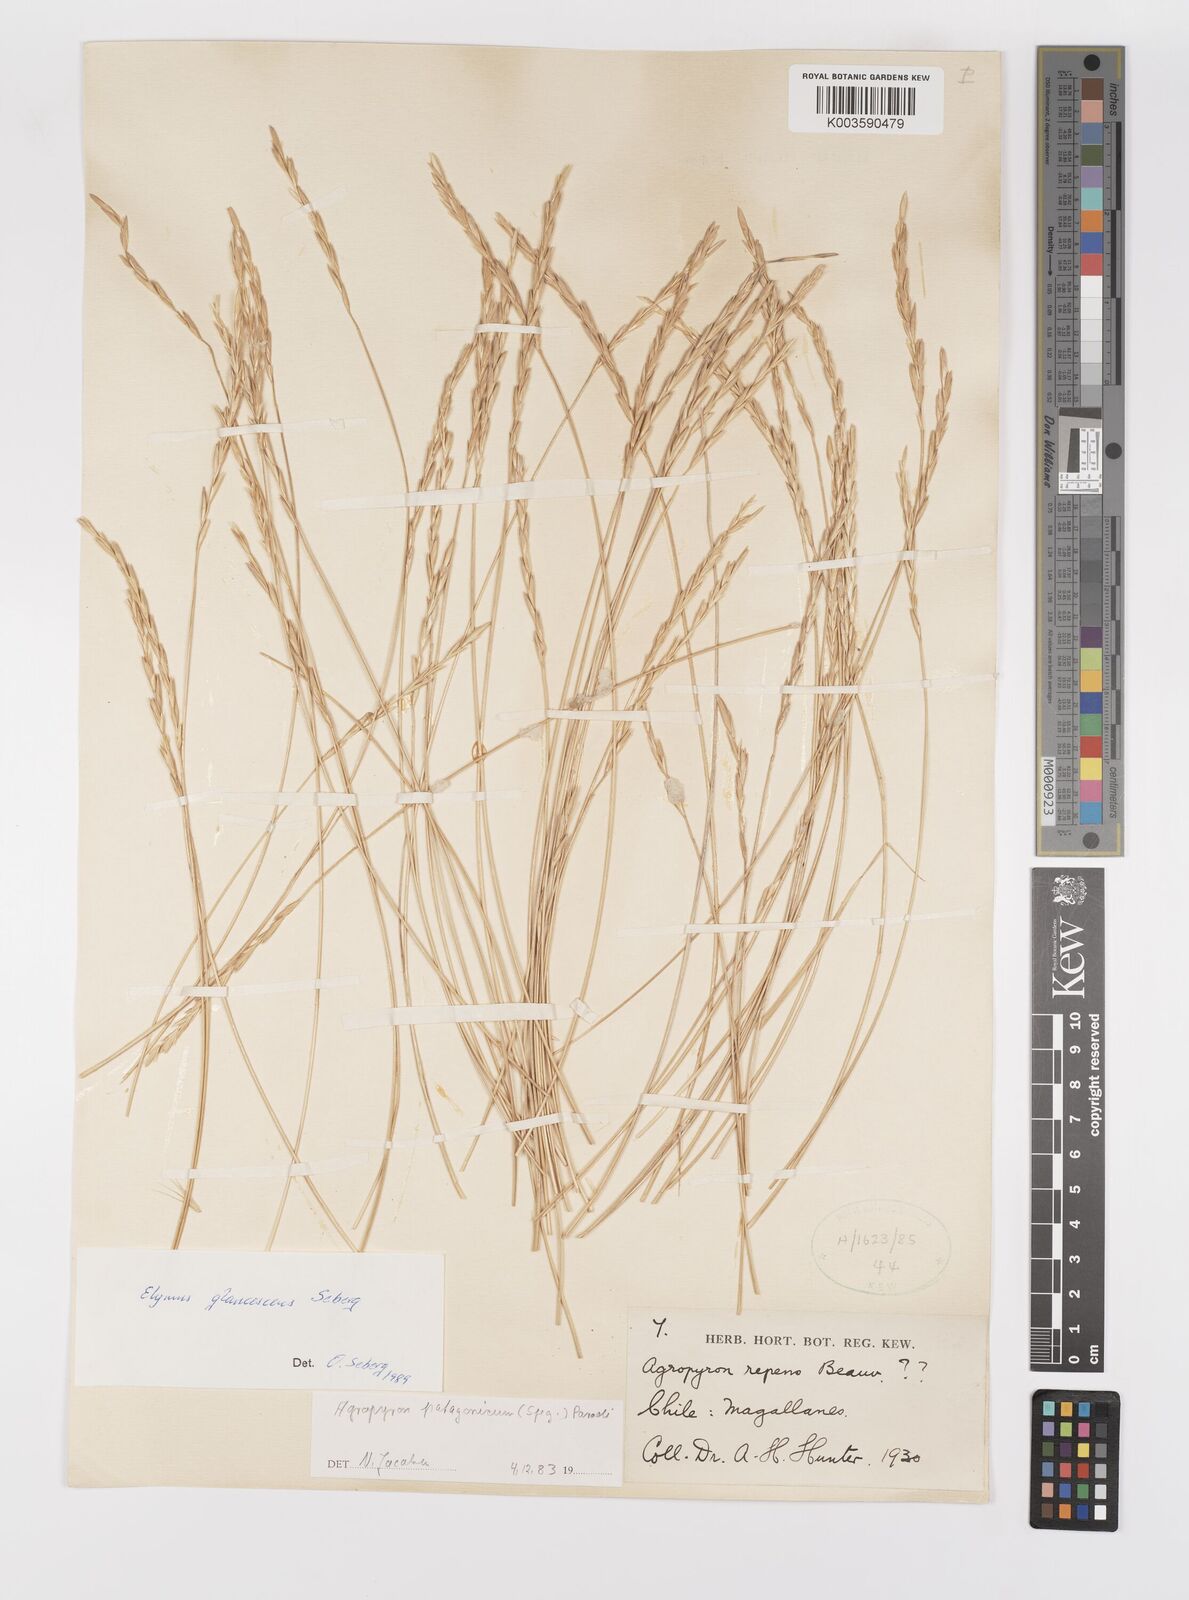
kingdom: Plantae
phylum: Tracheophyta
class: Liliopsida
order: Poales
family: Poaceae
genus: Elymus
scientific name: Elymus magellanicus
